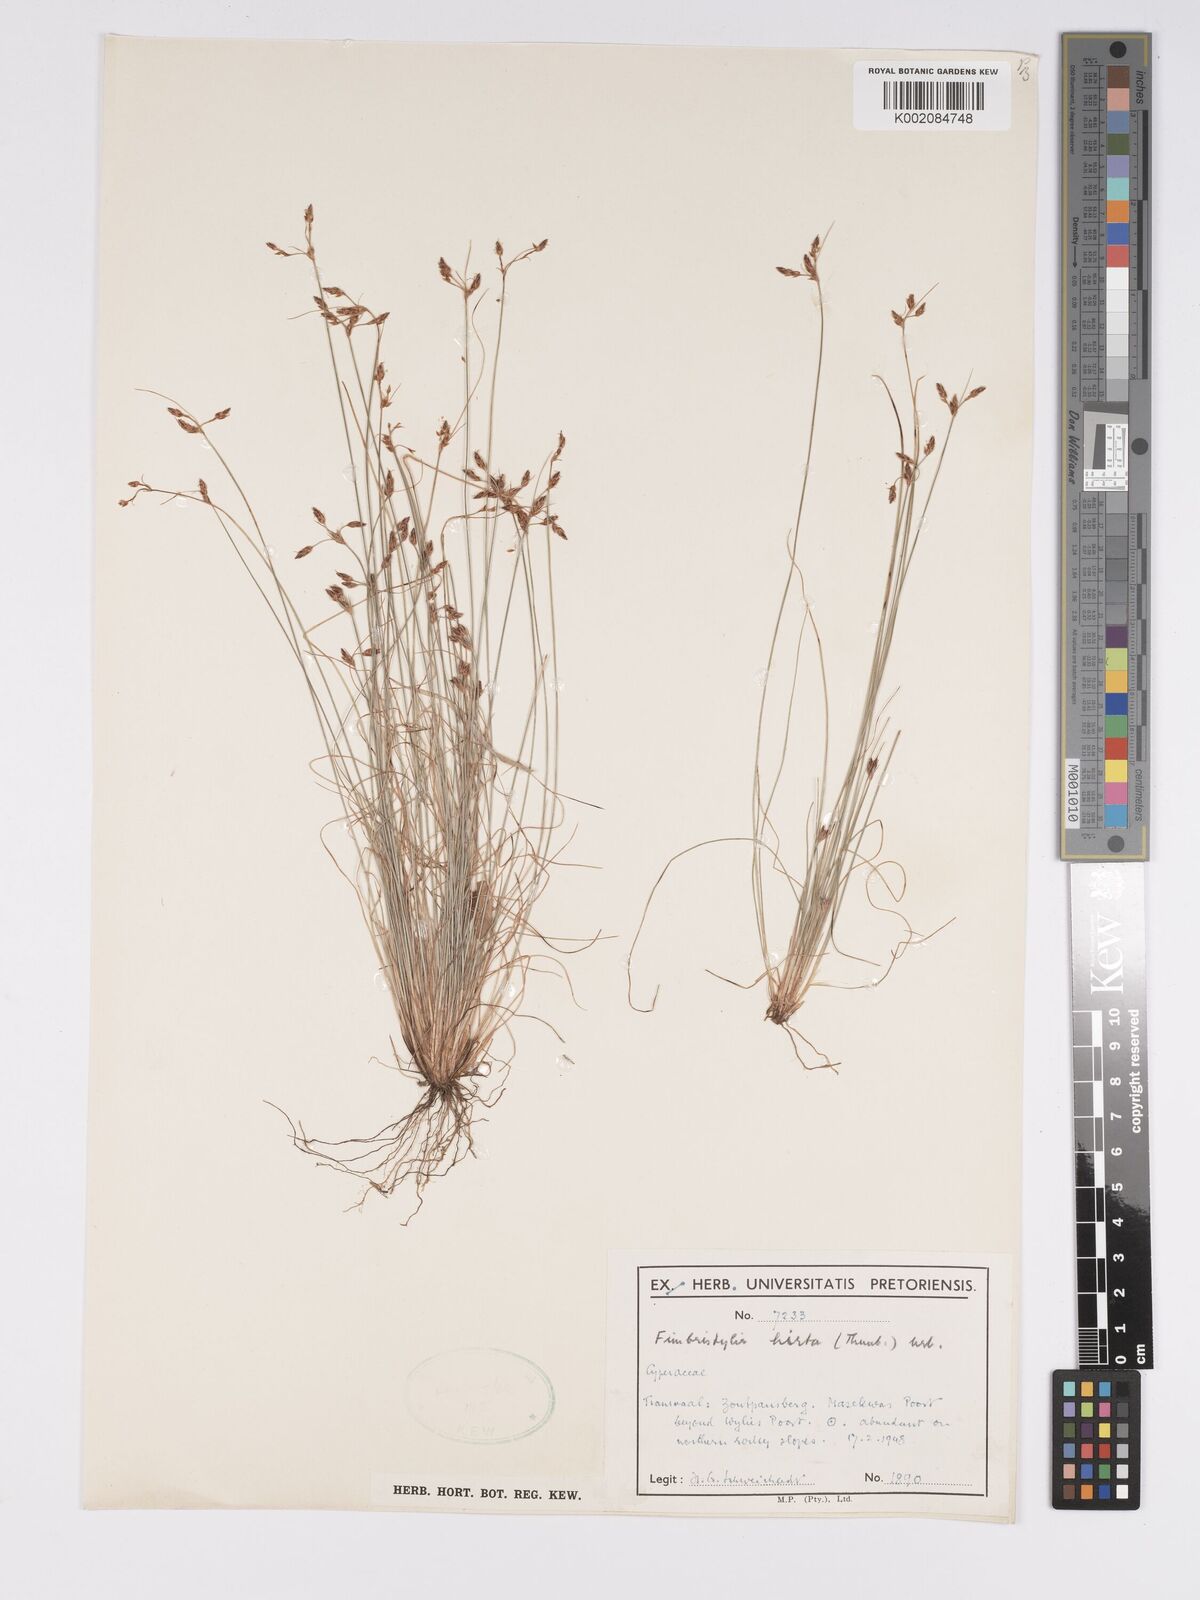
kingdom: Plantae
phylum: Tracheophyta
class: Liliopsida
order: Poales
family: Cyperaceae
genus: Bulbostylis
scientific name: Bulbostylis
